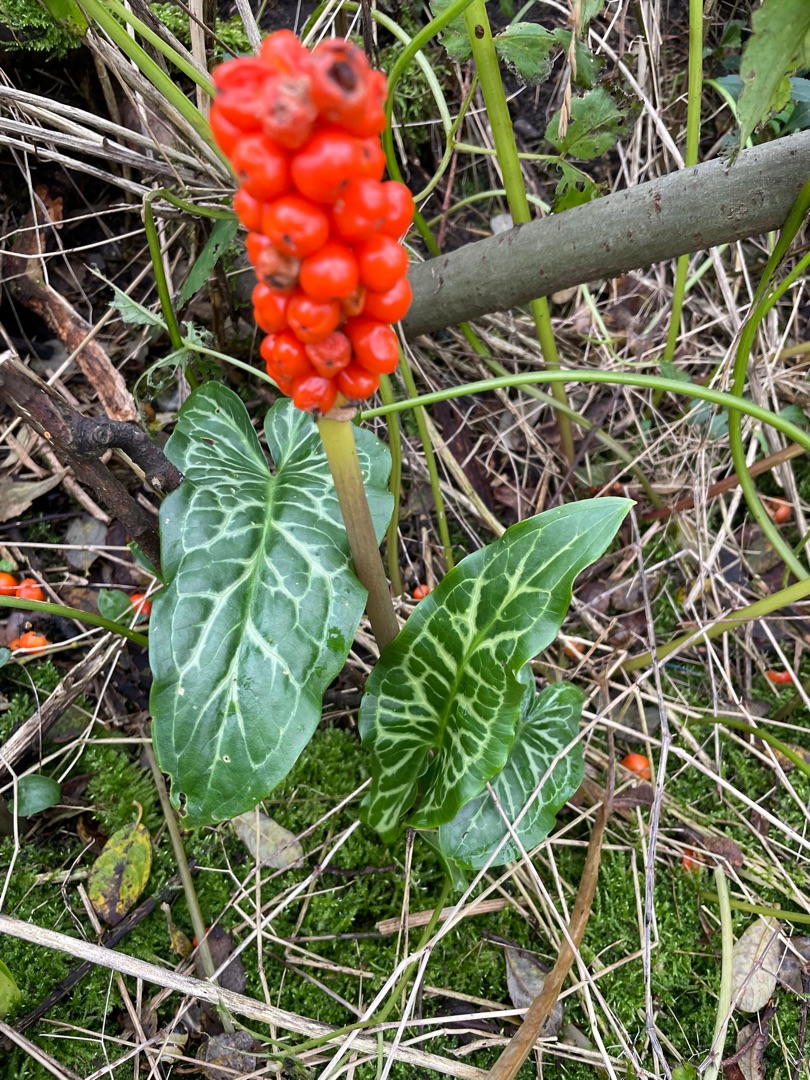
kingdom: Plantae
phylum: Tracheophyta
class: Liliopsida
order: Alismatales
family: Araceae
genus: Arum
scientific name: Arum italicum
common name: Italiensk arum
